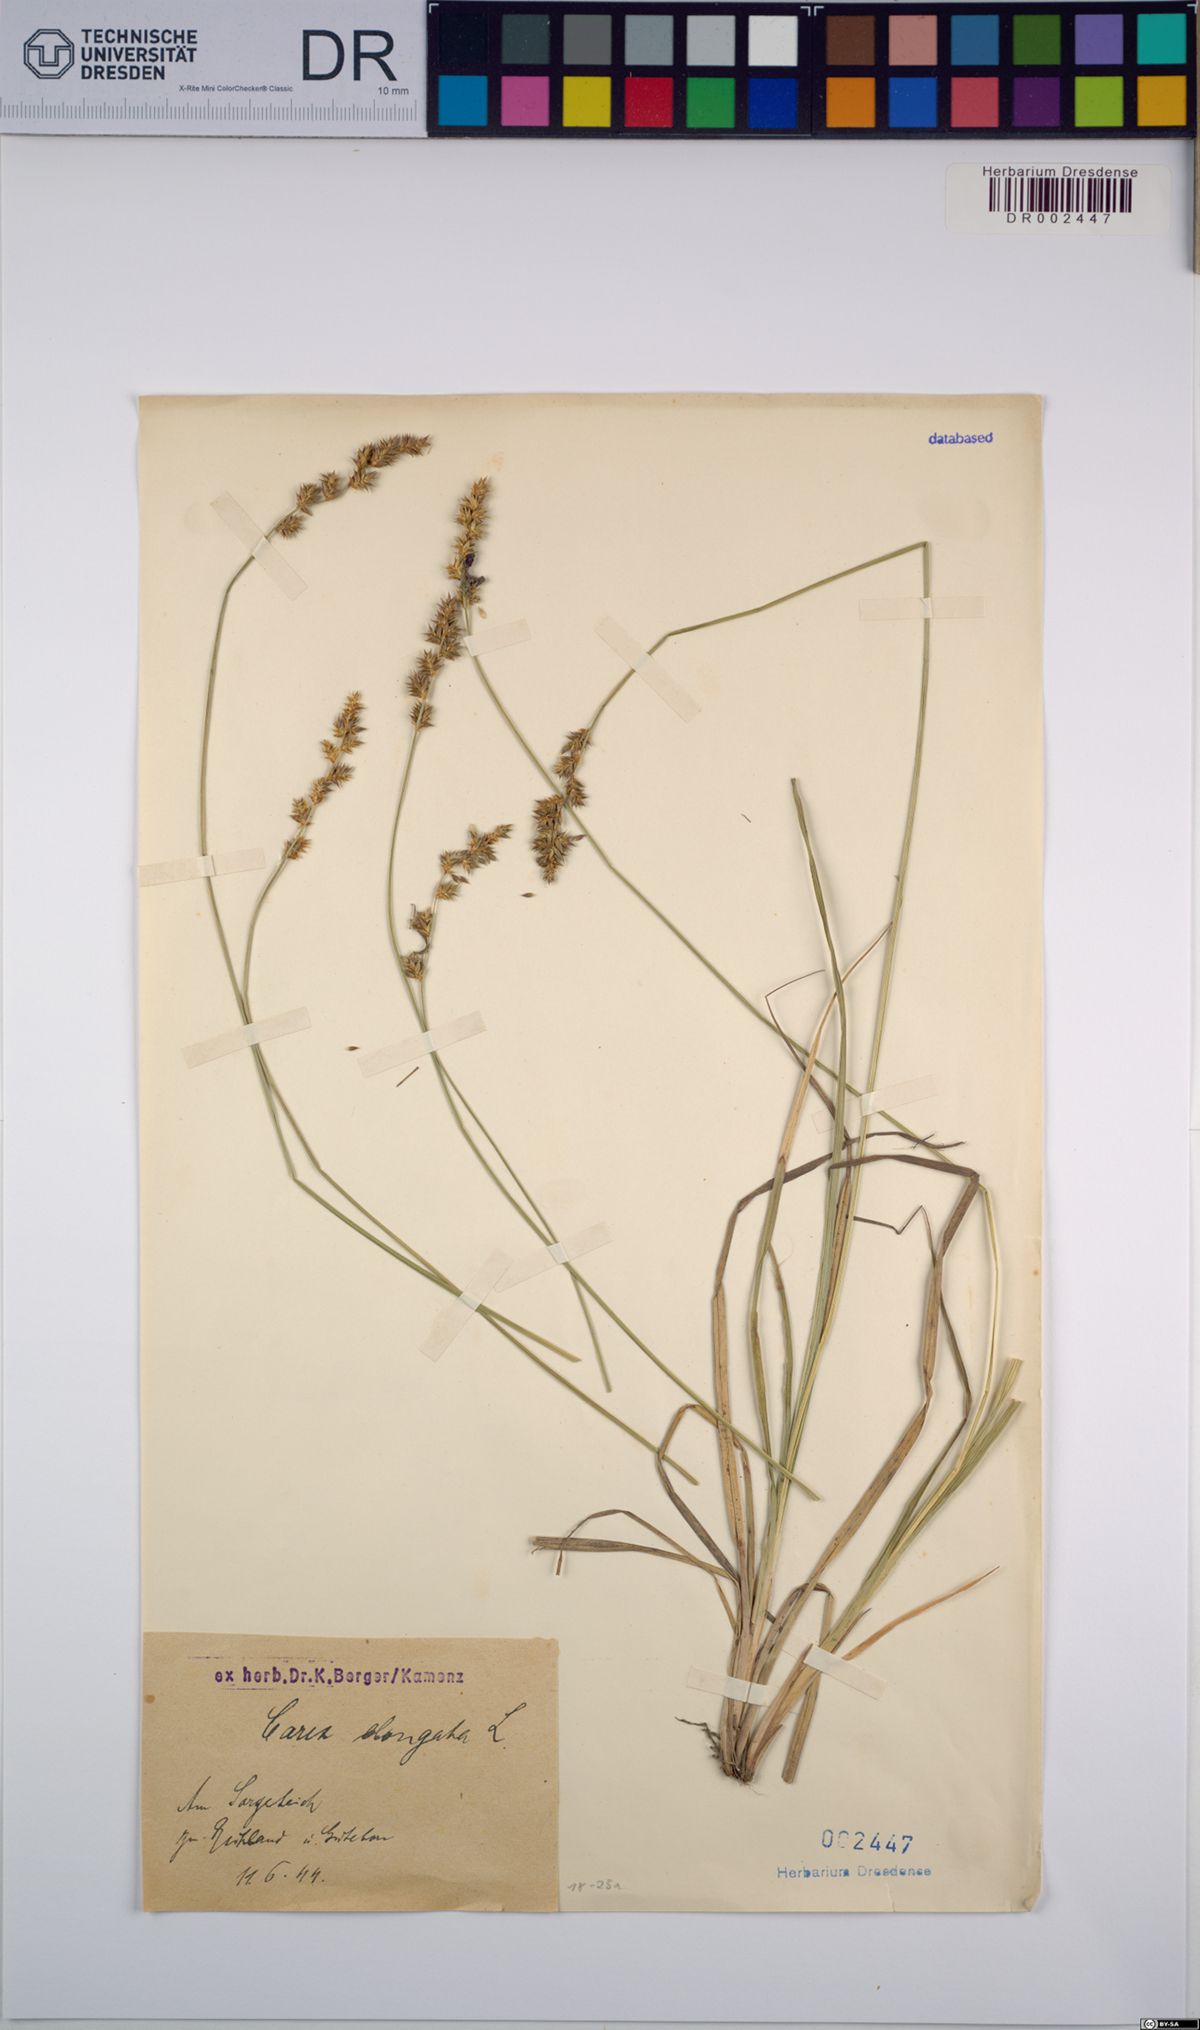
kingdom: Plantae
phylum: Tracheophyta
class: Liliopsida
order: Poales
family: Cyperaceae
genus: Carex
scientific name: Carex elongata
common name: Elongated sedge
